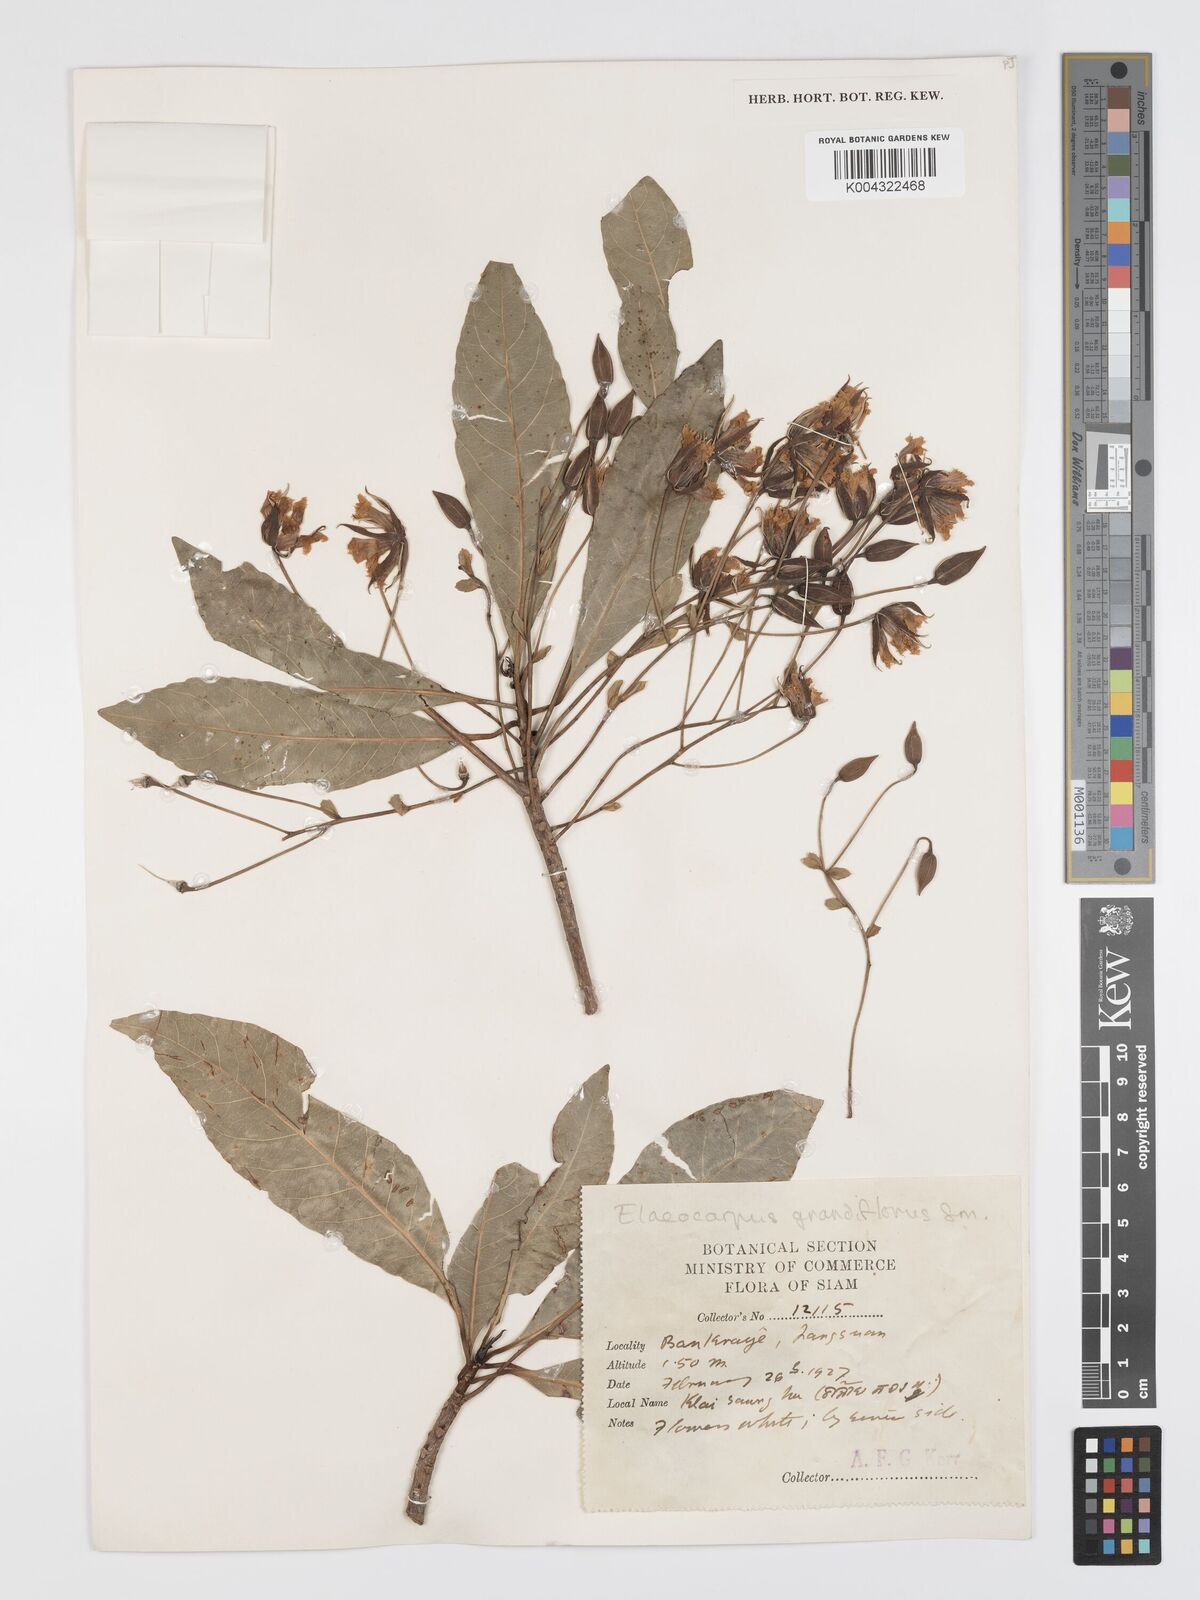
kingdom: Plantae
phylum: Tracheophyta
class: Magnoliopsida
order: Oxalidales
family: Elaeocarpaceae
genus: Elaeocarpus
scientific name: Elaeocarpus grandiflorus
